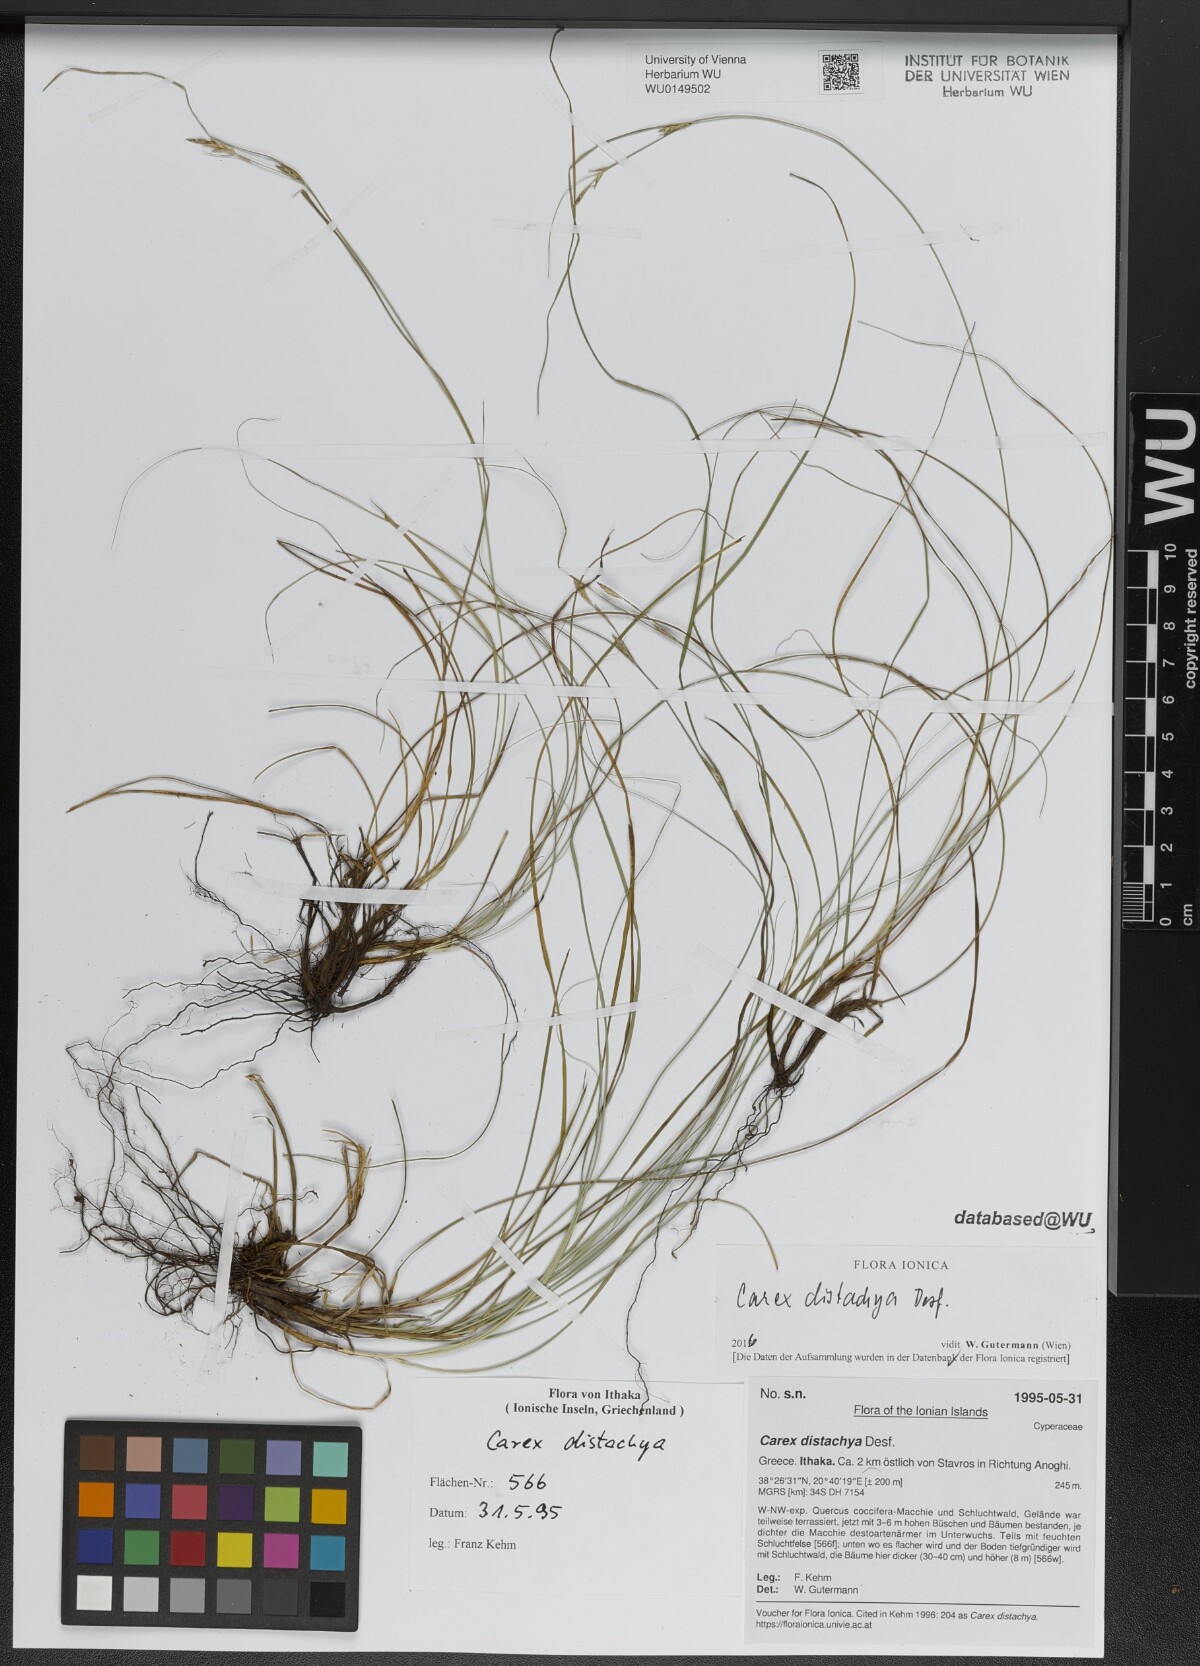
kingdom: Plantae
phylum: Tracheophyta
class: Liliopsida
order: Poales
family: Cyperaceae
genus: Carex
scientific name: Carex distachya
